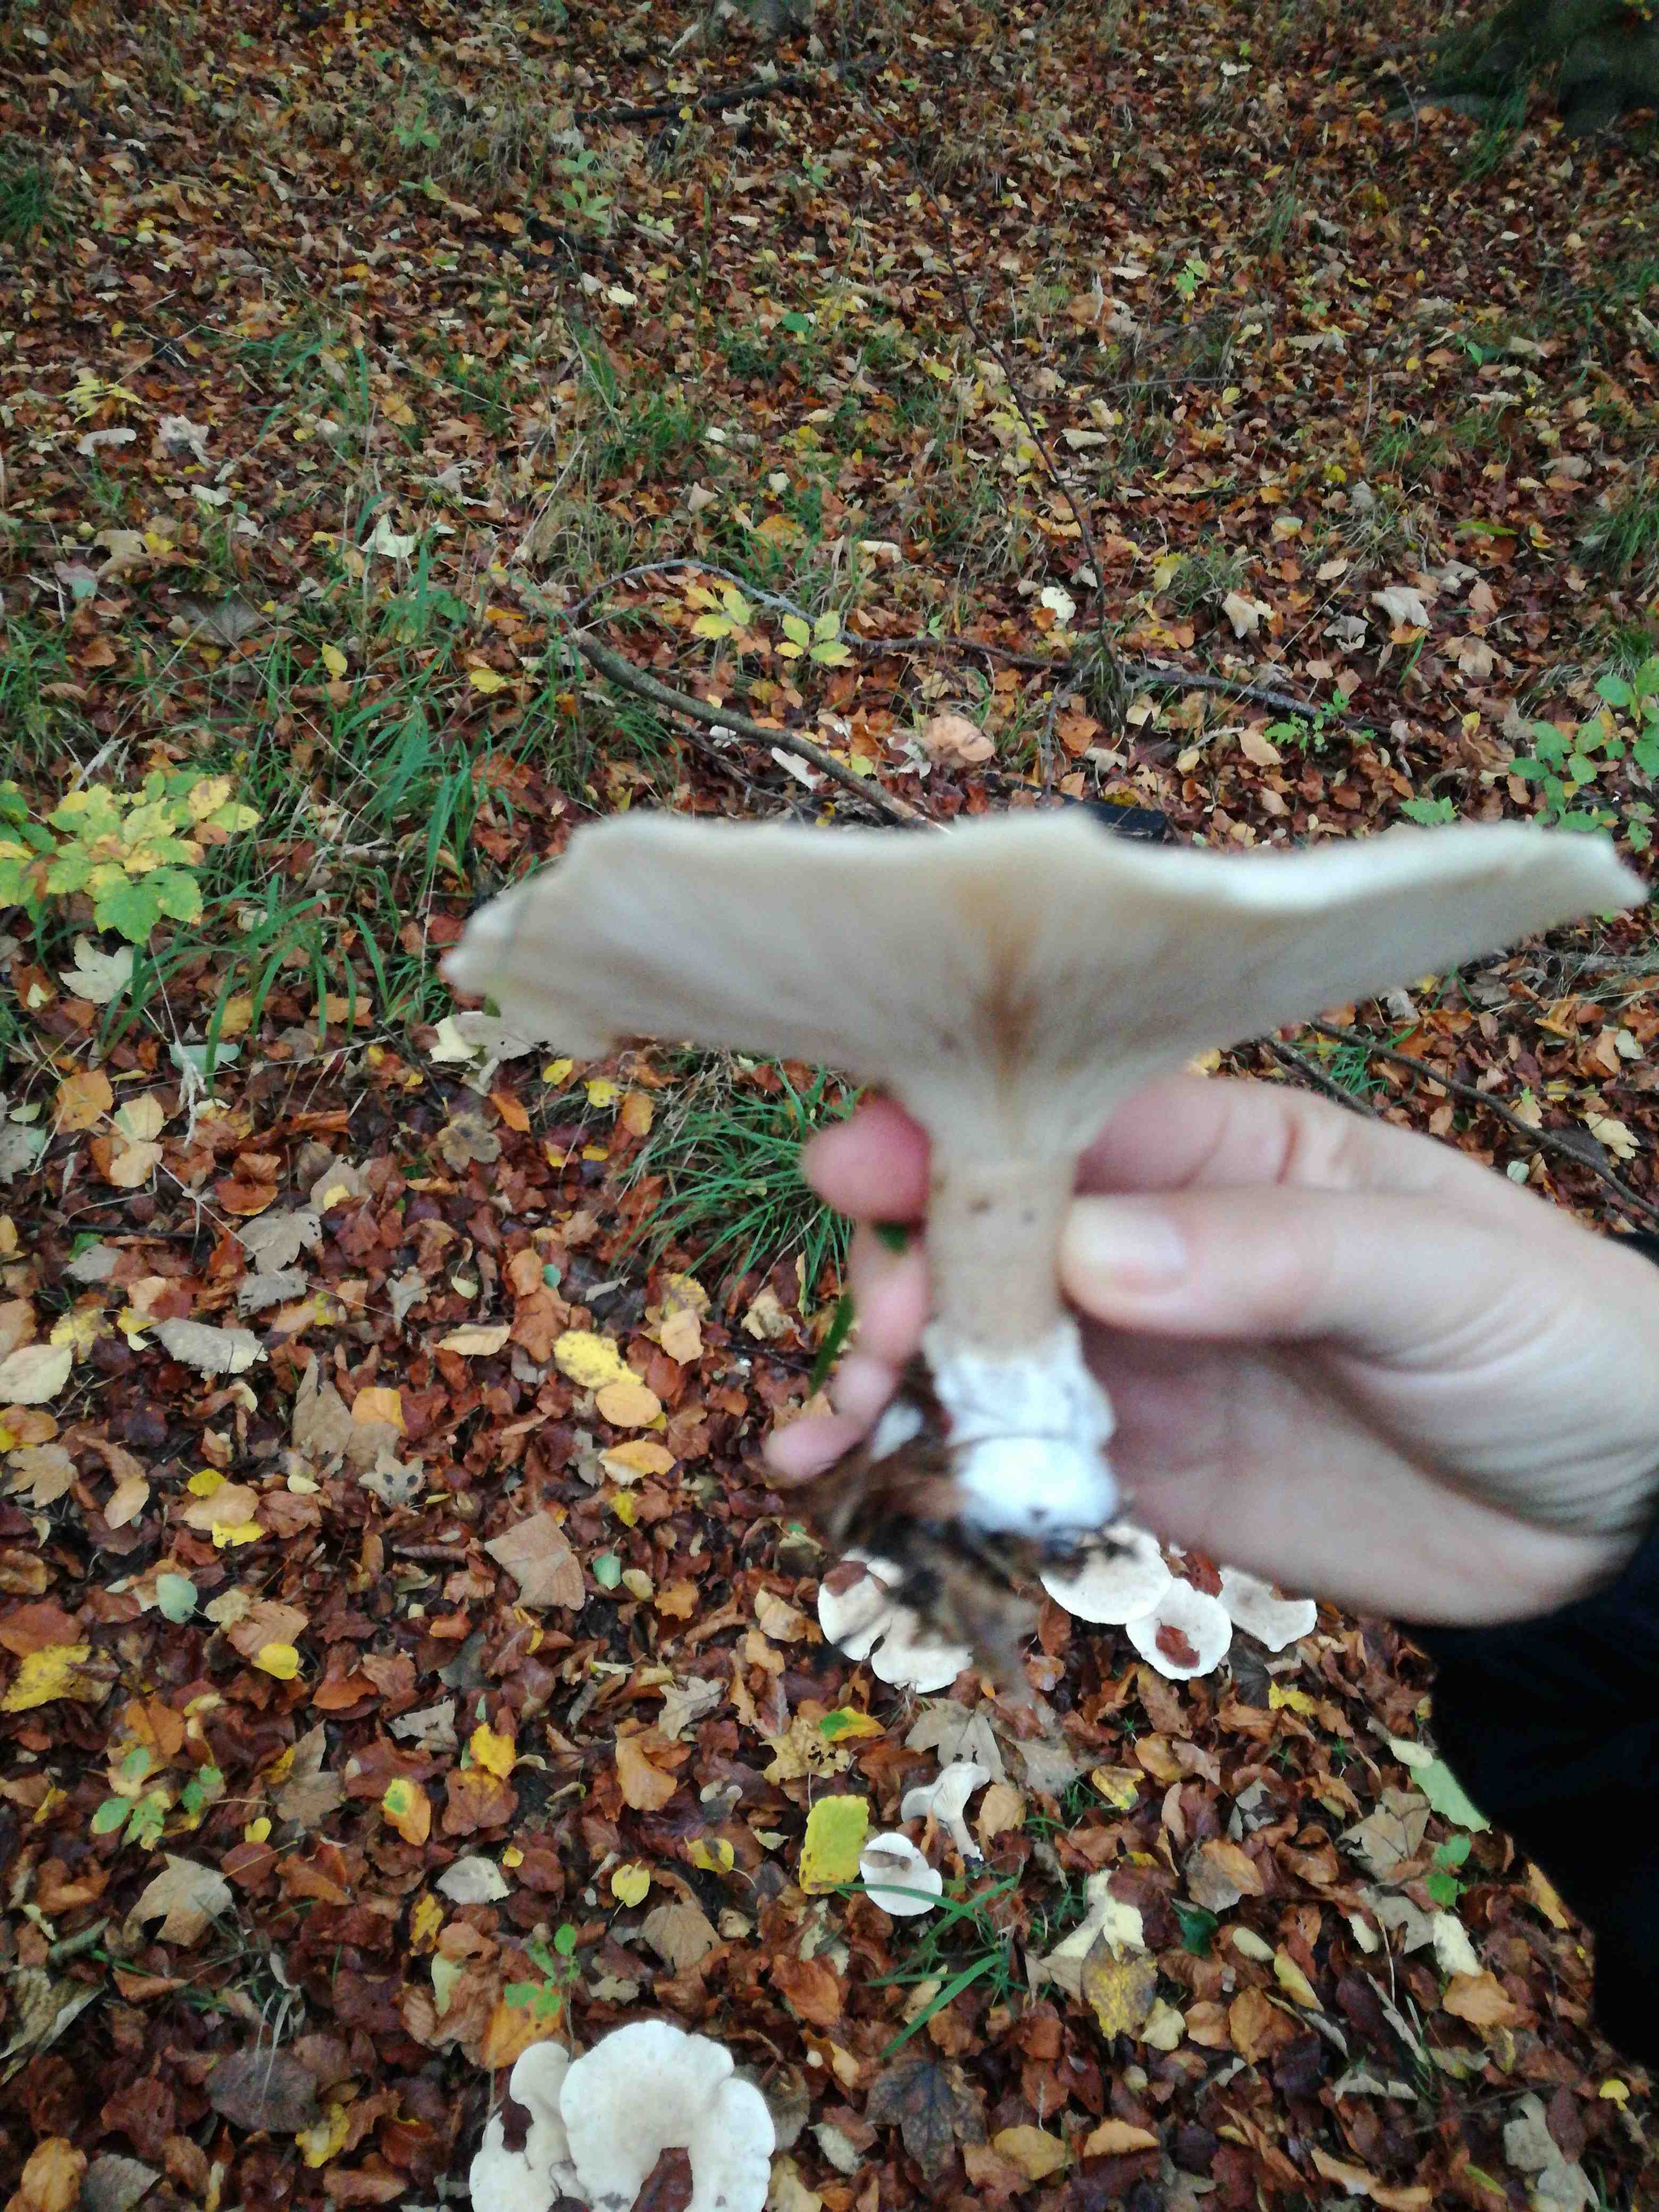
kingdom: Fungi
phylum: Basidiomycota
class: Agaricomycetes
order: Agaricales
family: Tricholomataceae
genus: Clitocybe
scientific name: Clitocybe nebularis
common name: tåge-tragthat
